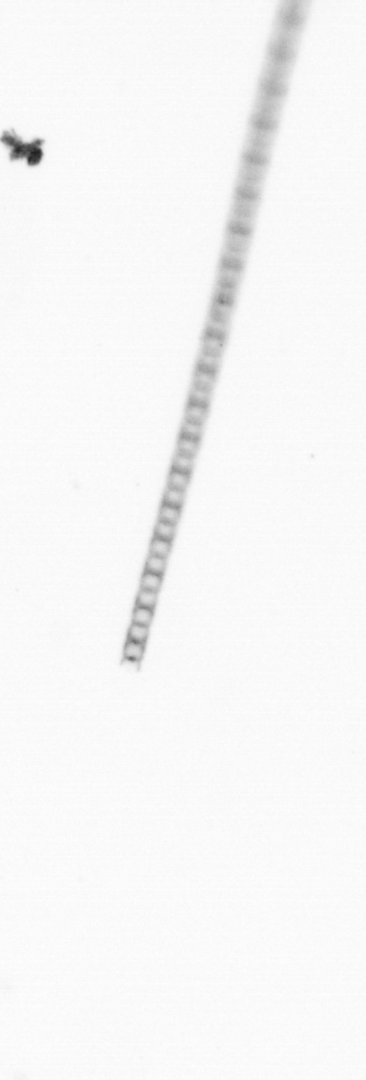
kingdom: Chromista
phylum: Ochrophyta
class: Bacillariophyceae
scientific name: Bacillariophyceae
